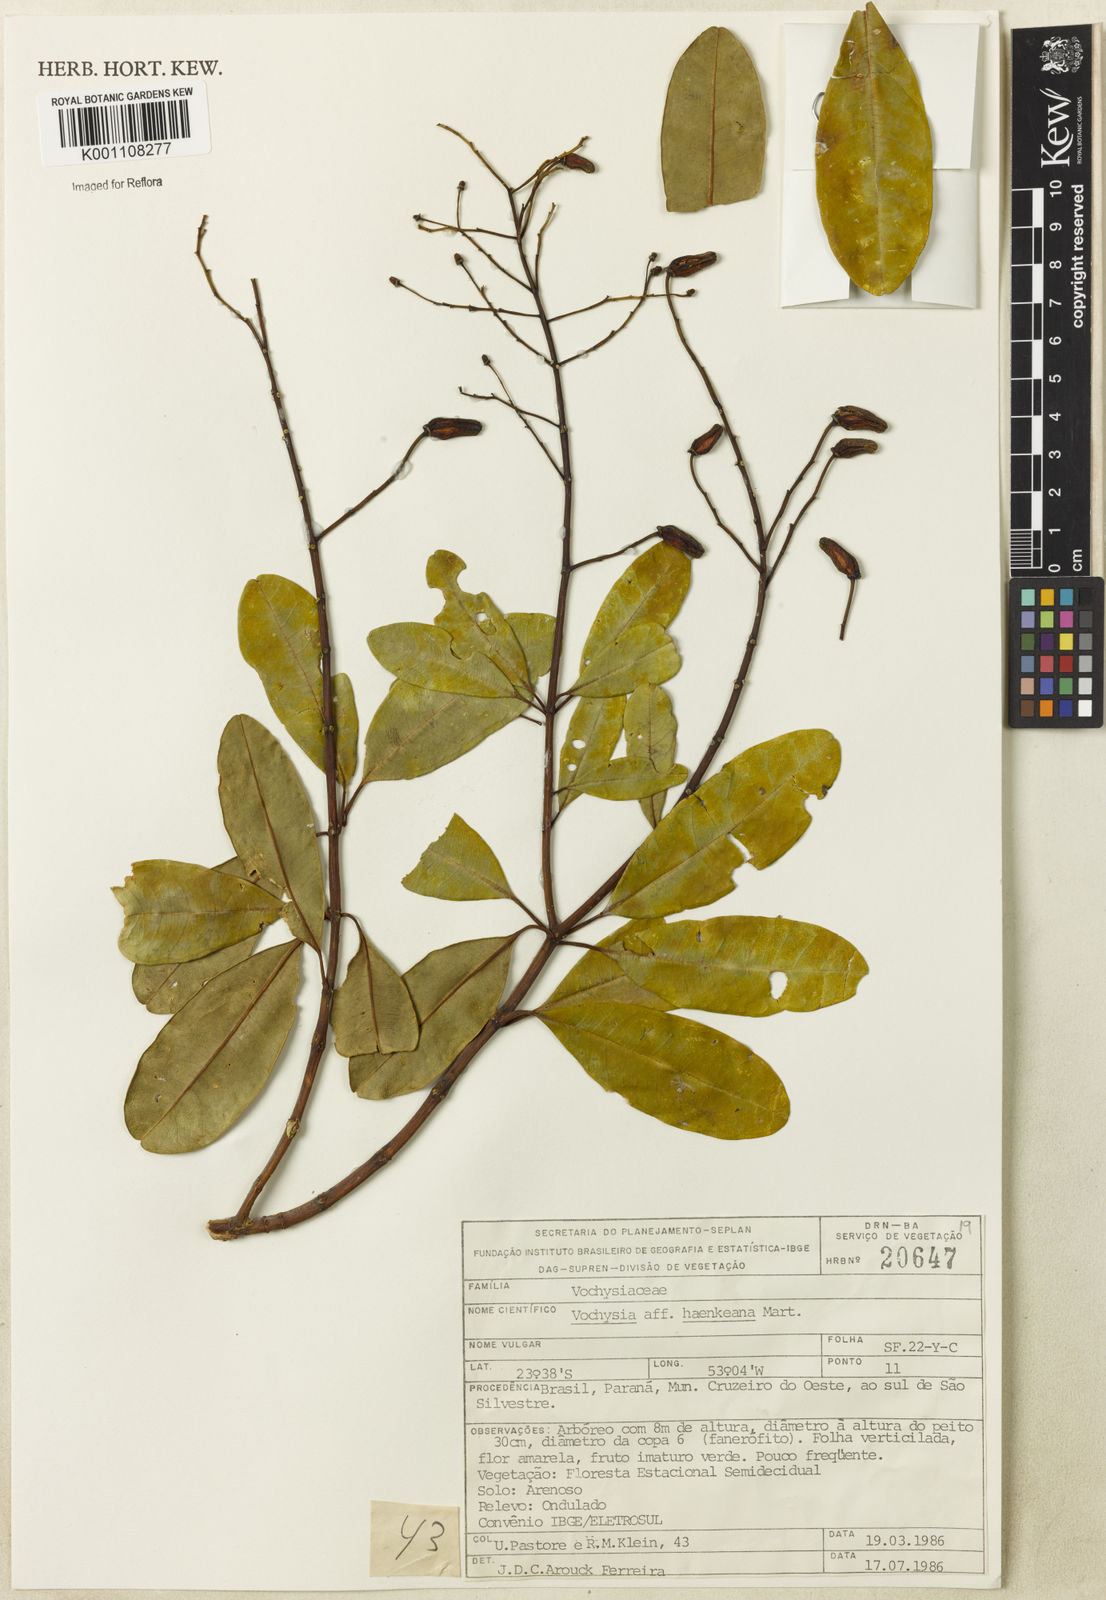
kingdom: Plantae
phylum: Tracheophyta
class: Magnoliopsida
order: Myrtales
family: Vochysiaceae
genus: Vochysia
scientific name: Vochysia haenkeana
